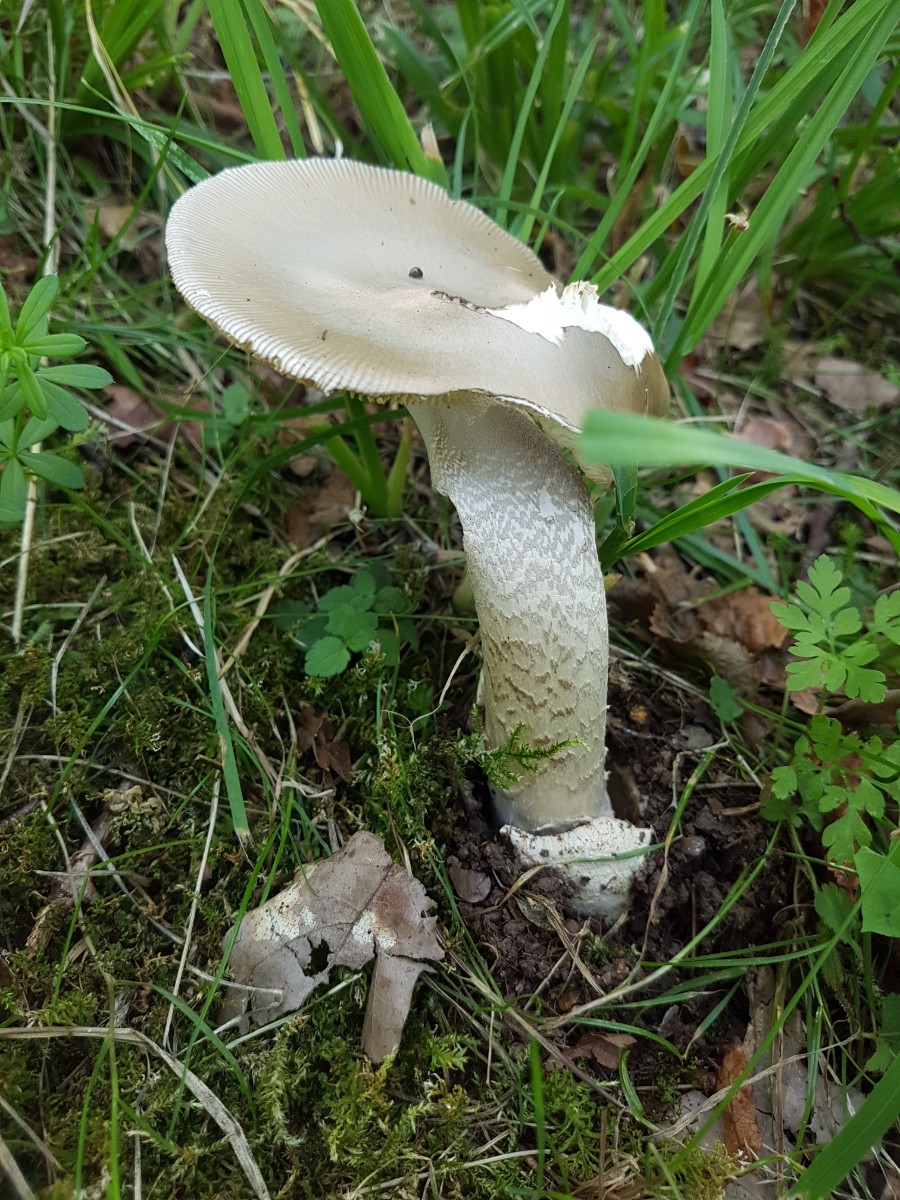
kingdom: Fungi
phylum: Basidiomycota
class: Agaricomycetes
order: Agaricales
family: Amanitaceae
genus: Amanita
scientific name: Amanita
